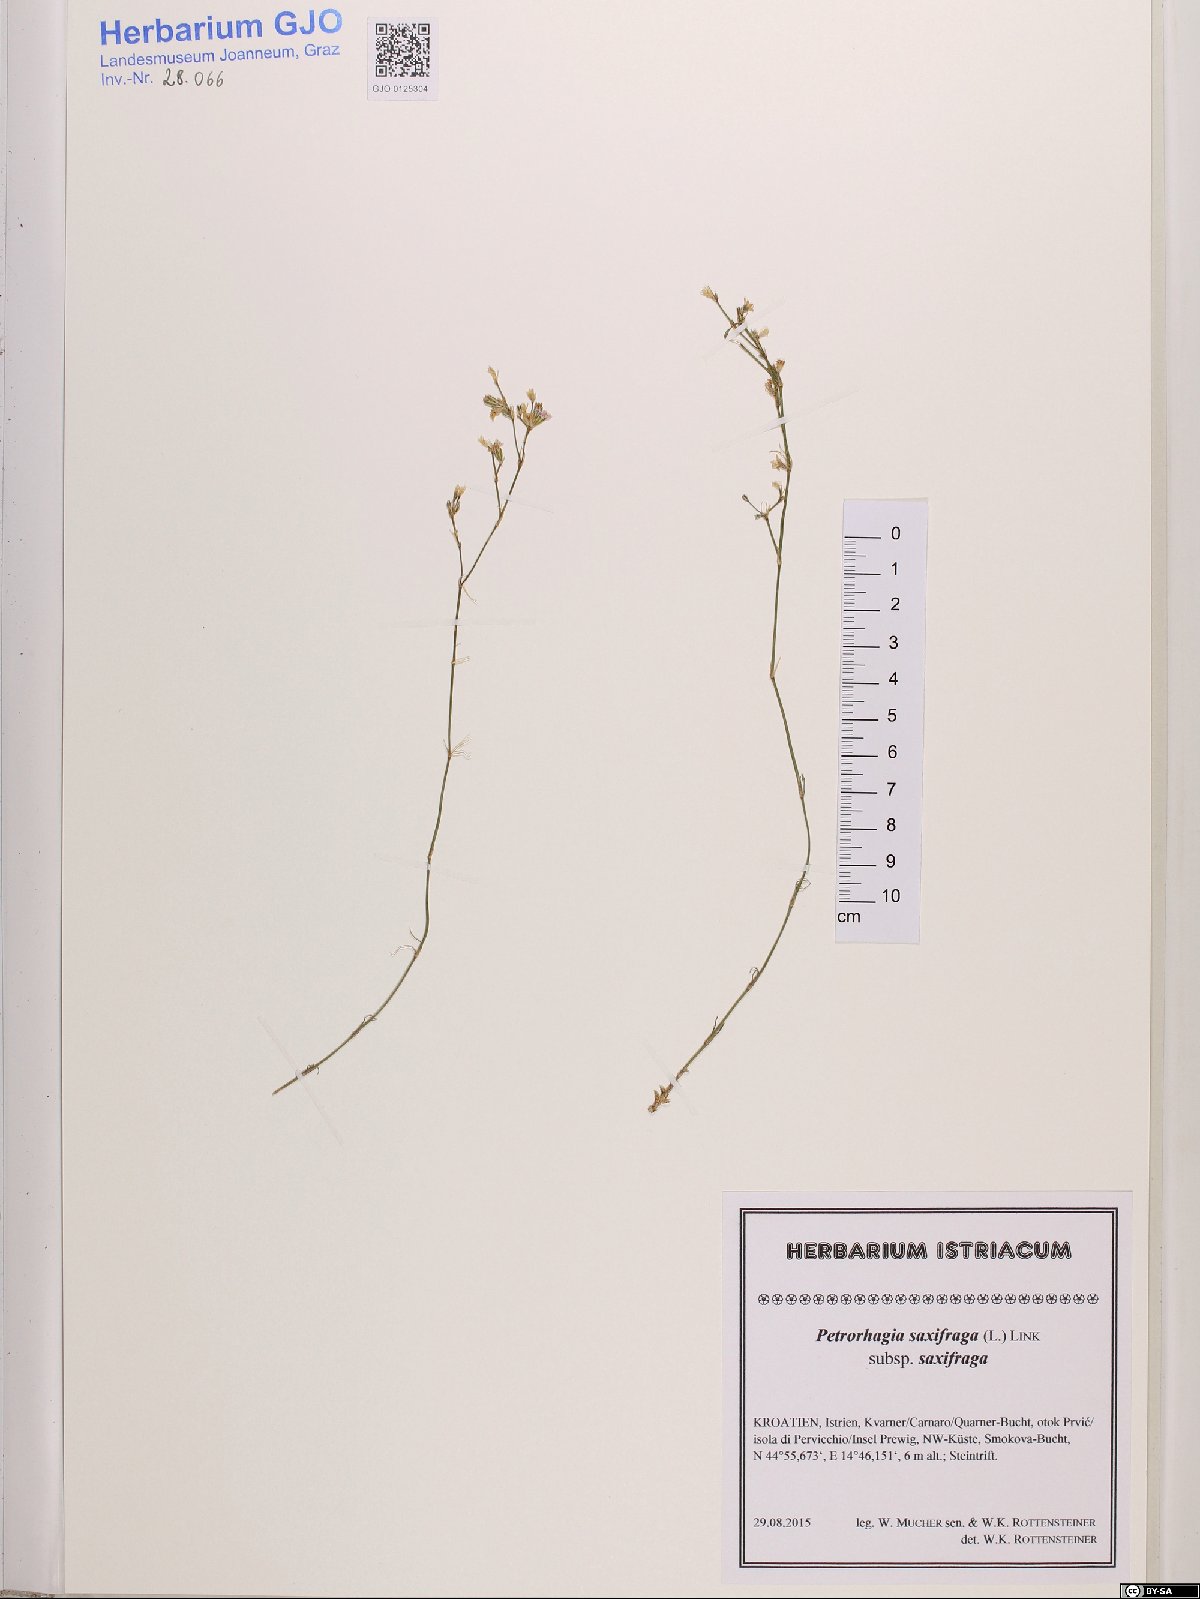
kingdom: Plantae
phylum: Tracheophyta
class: Magnoliopsida
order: Caryophyllales
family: Caryophyllaceae
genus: Petrorhagia
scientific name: Petrorhagia saxifraga
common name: Tunicflower
